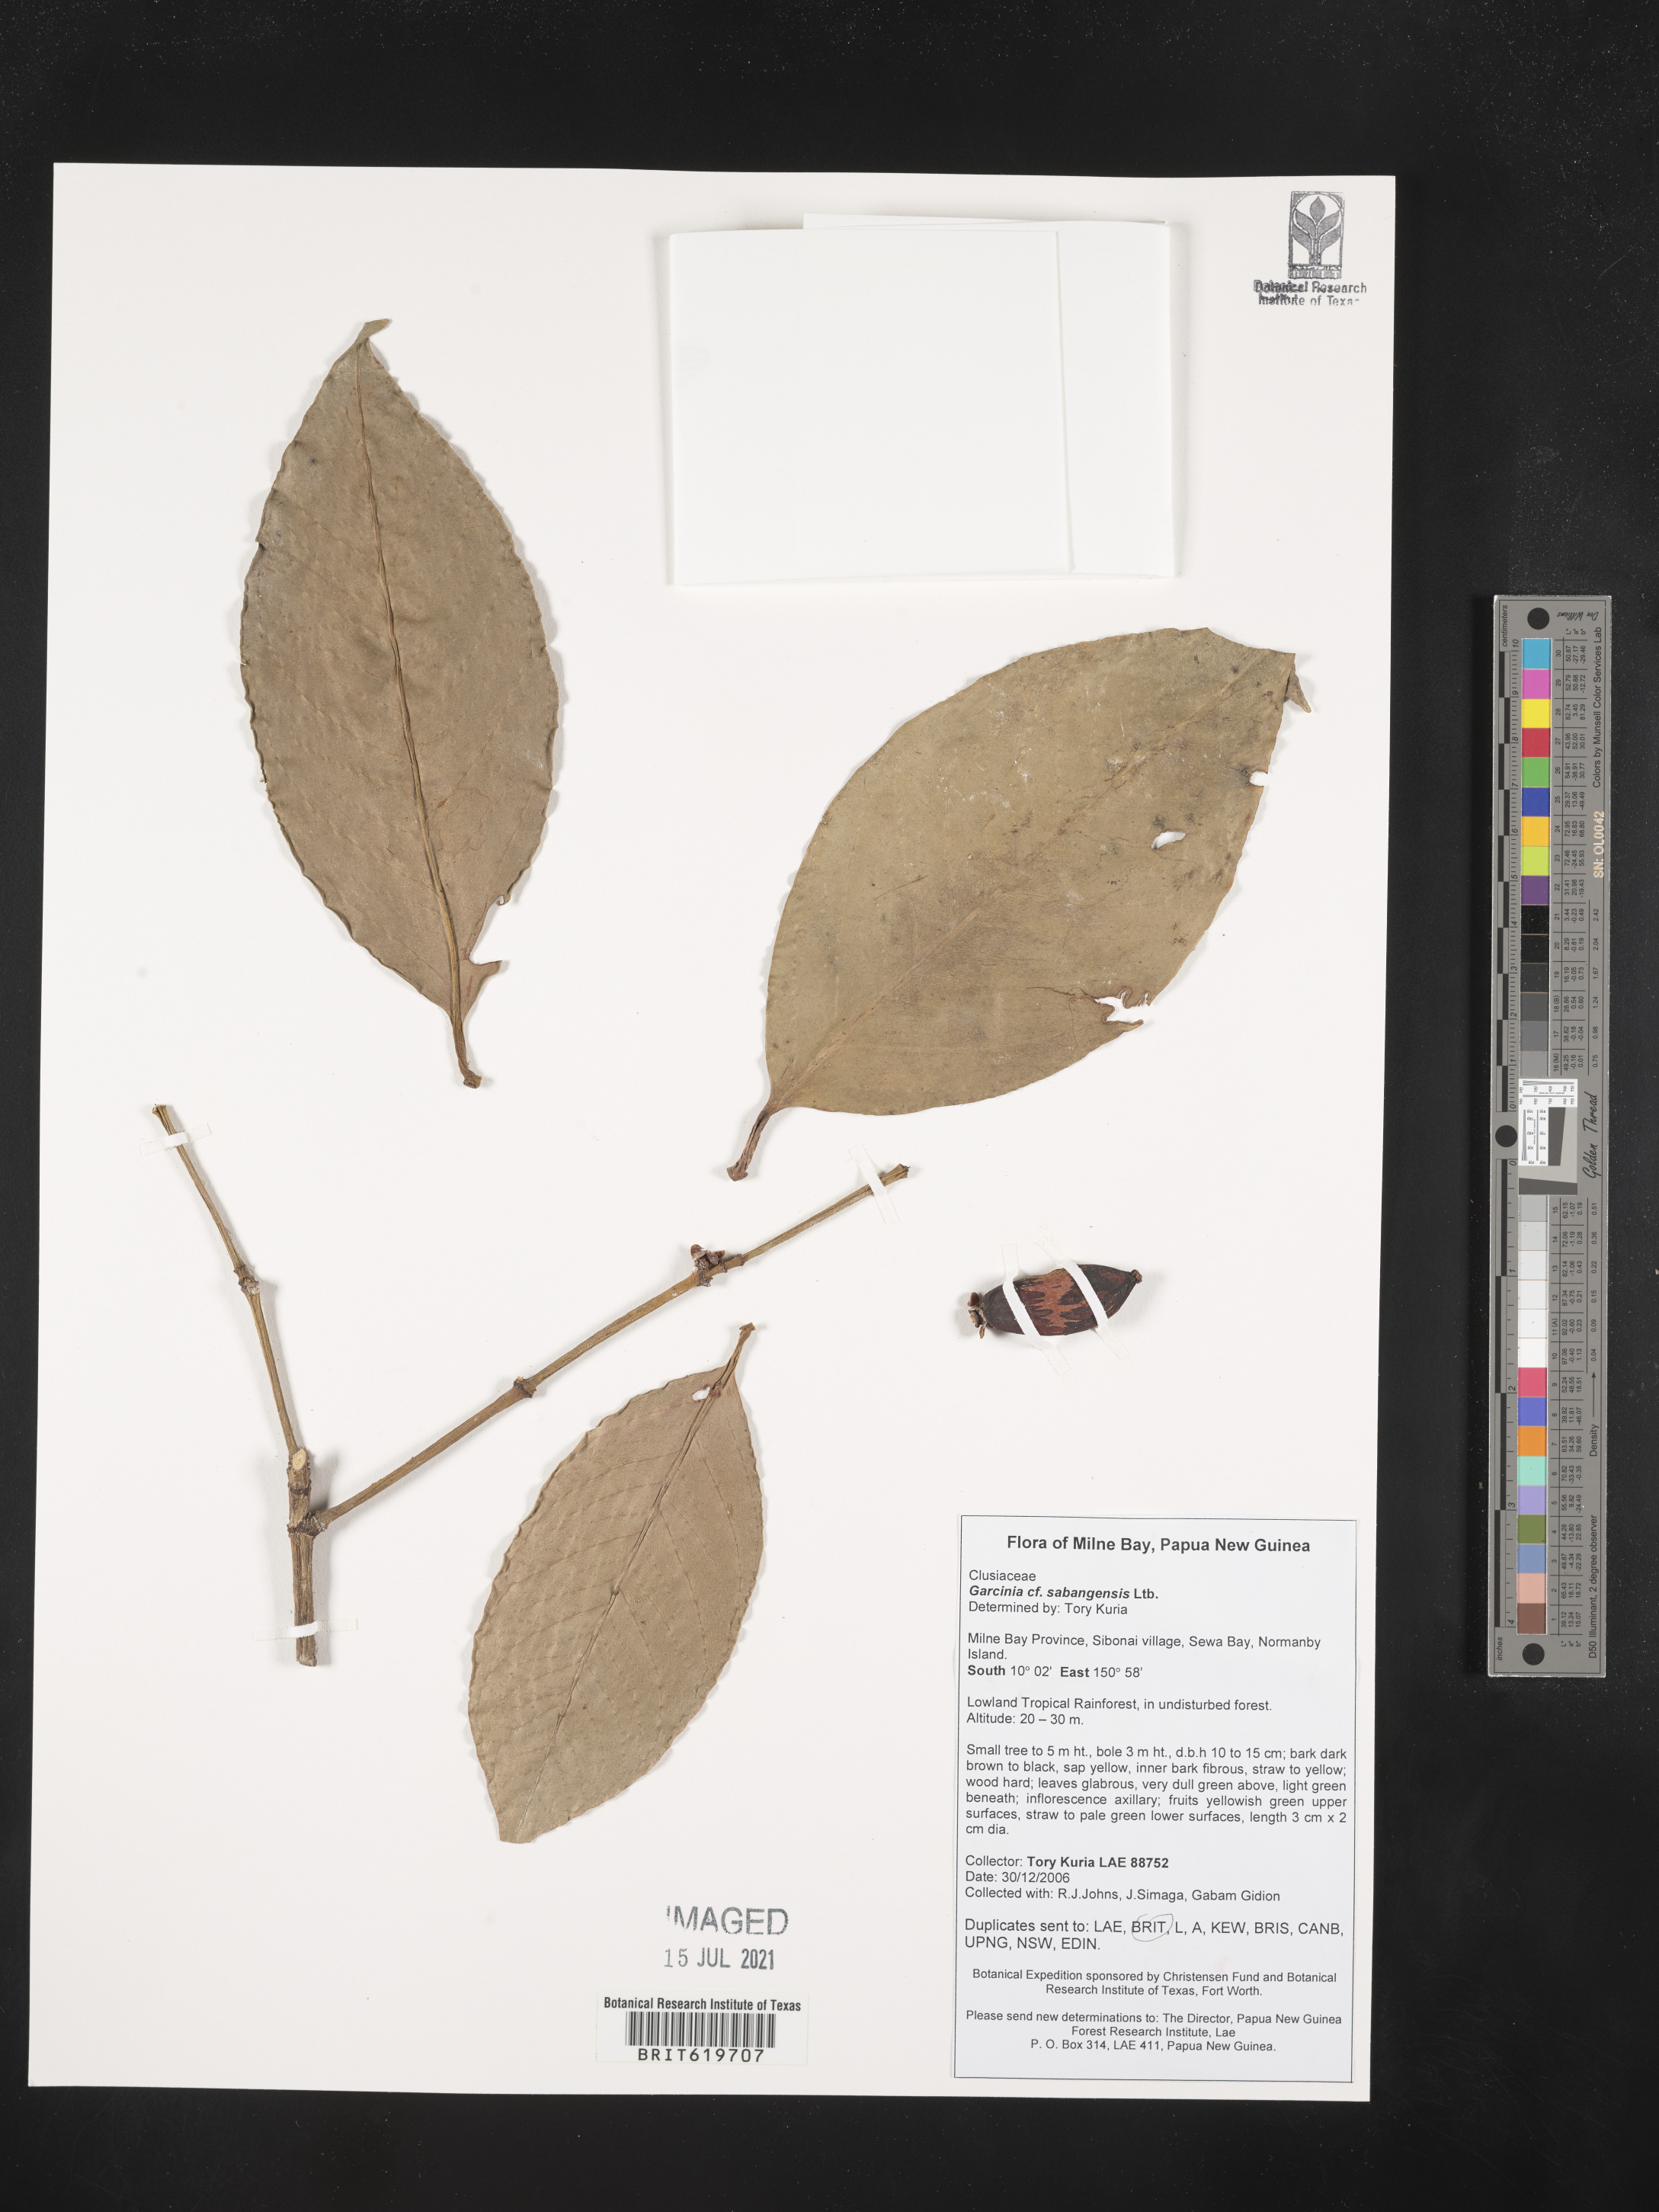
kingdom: Plantae
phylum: Tracheophyta
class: Magnoliopsida
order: Malpighiales
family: Clusiaceae
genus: Garcinia
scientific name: Garcinia sabangensis
